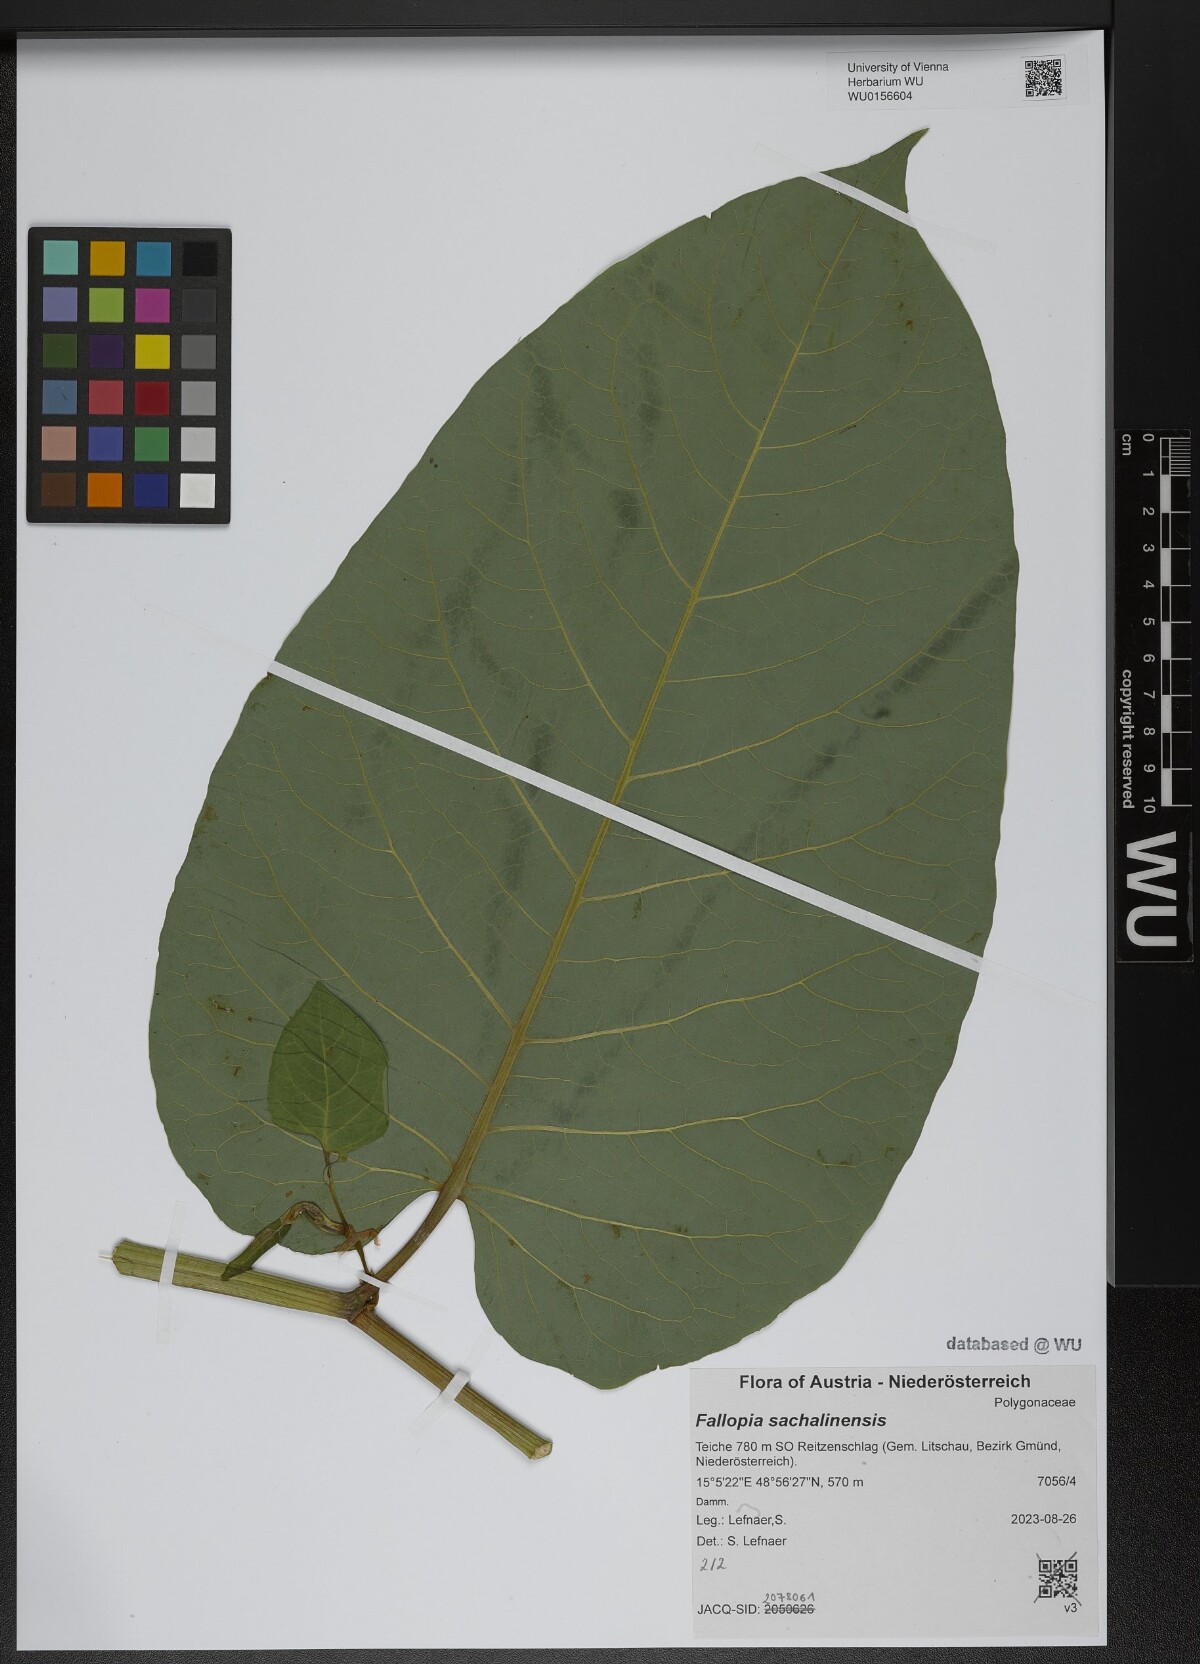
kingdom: Plantae
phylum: Tracheophyta
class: Magnoliopsida
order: Caryophyllales
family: Polygonaceae
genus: Reynoutria
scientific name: Reynoutria sachalinensis
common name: Giant knotweed
